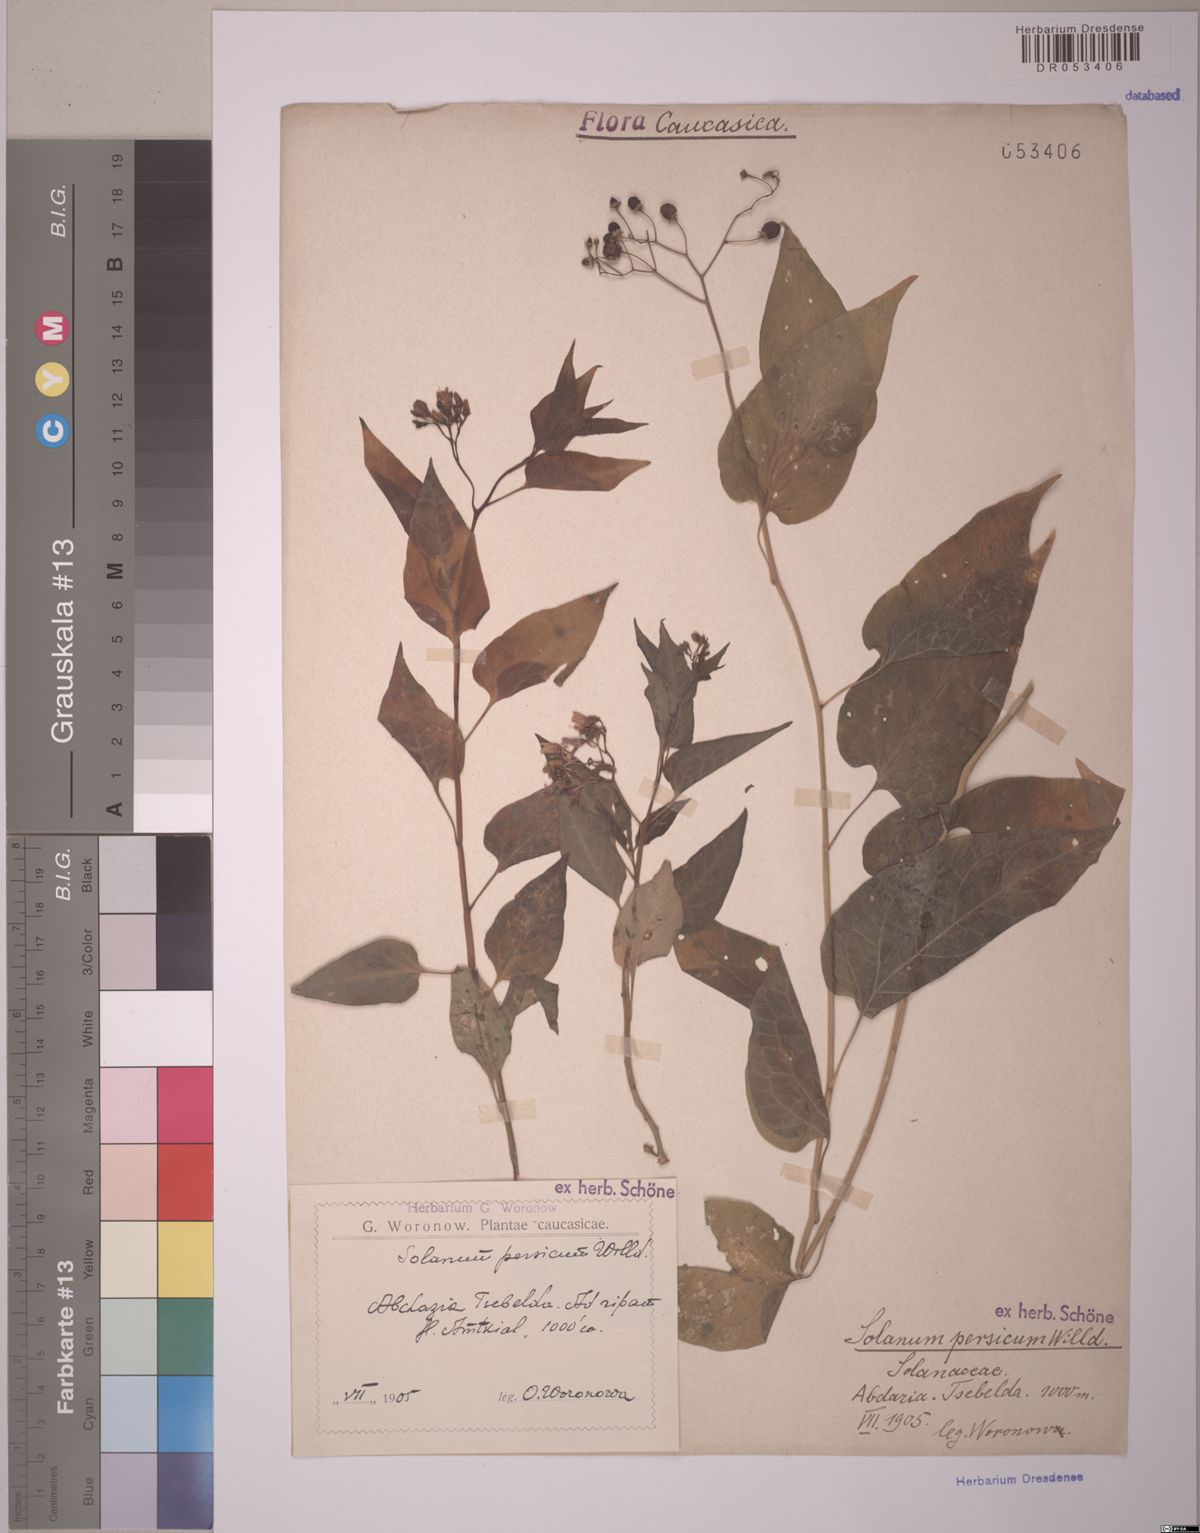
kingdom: Plantae
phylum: Tracheophyta
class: Magnoliopsida
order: Solanales
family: Solanaceae
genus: Solanum
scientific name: Solanum dulcamara
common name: Climbing nightshade
